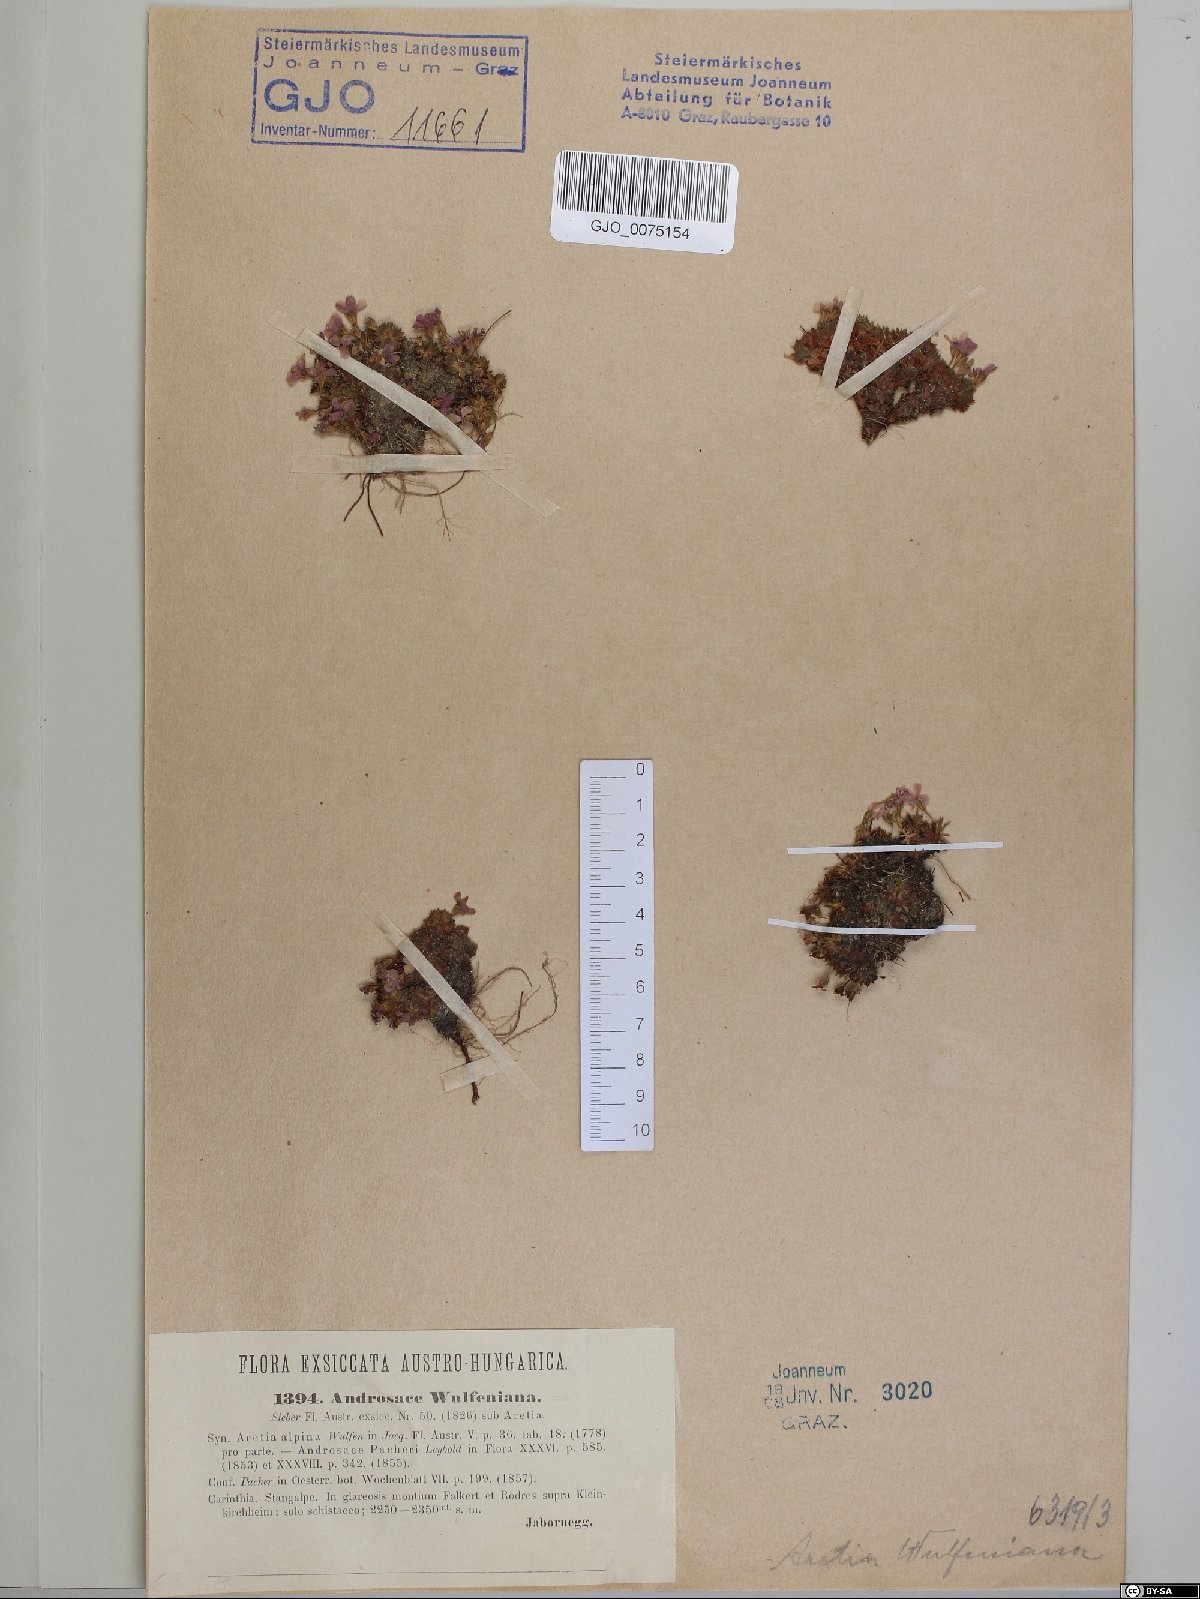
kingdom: Plantae
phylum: Tracheophyta
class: Magnoliopsida
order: Ericales
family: Primulaceae
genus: Androsace
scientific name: Androsace wulfeniana
